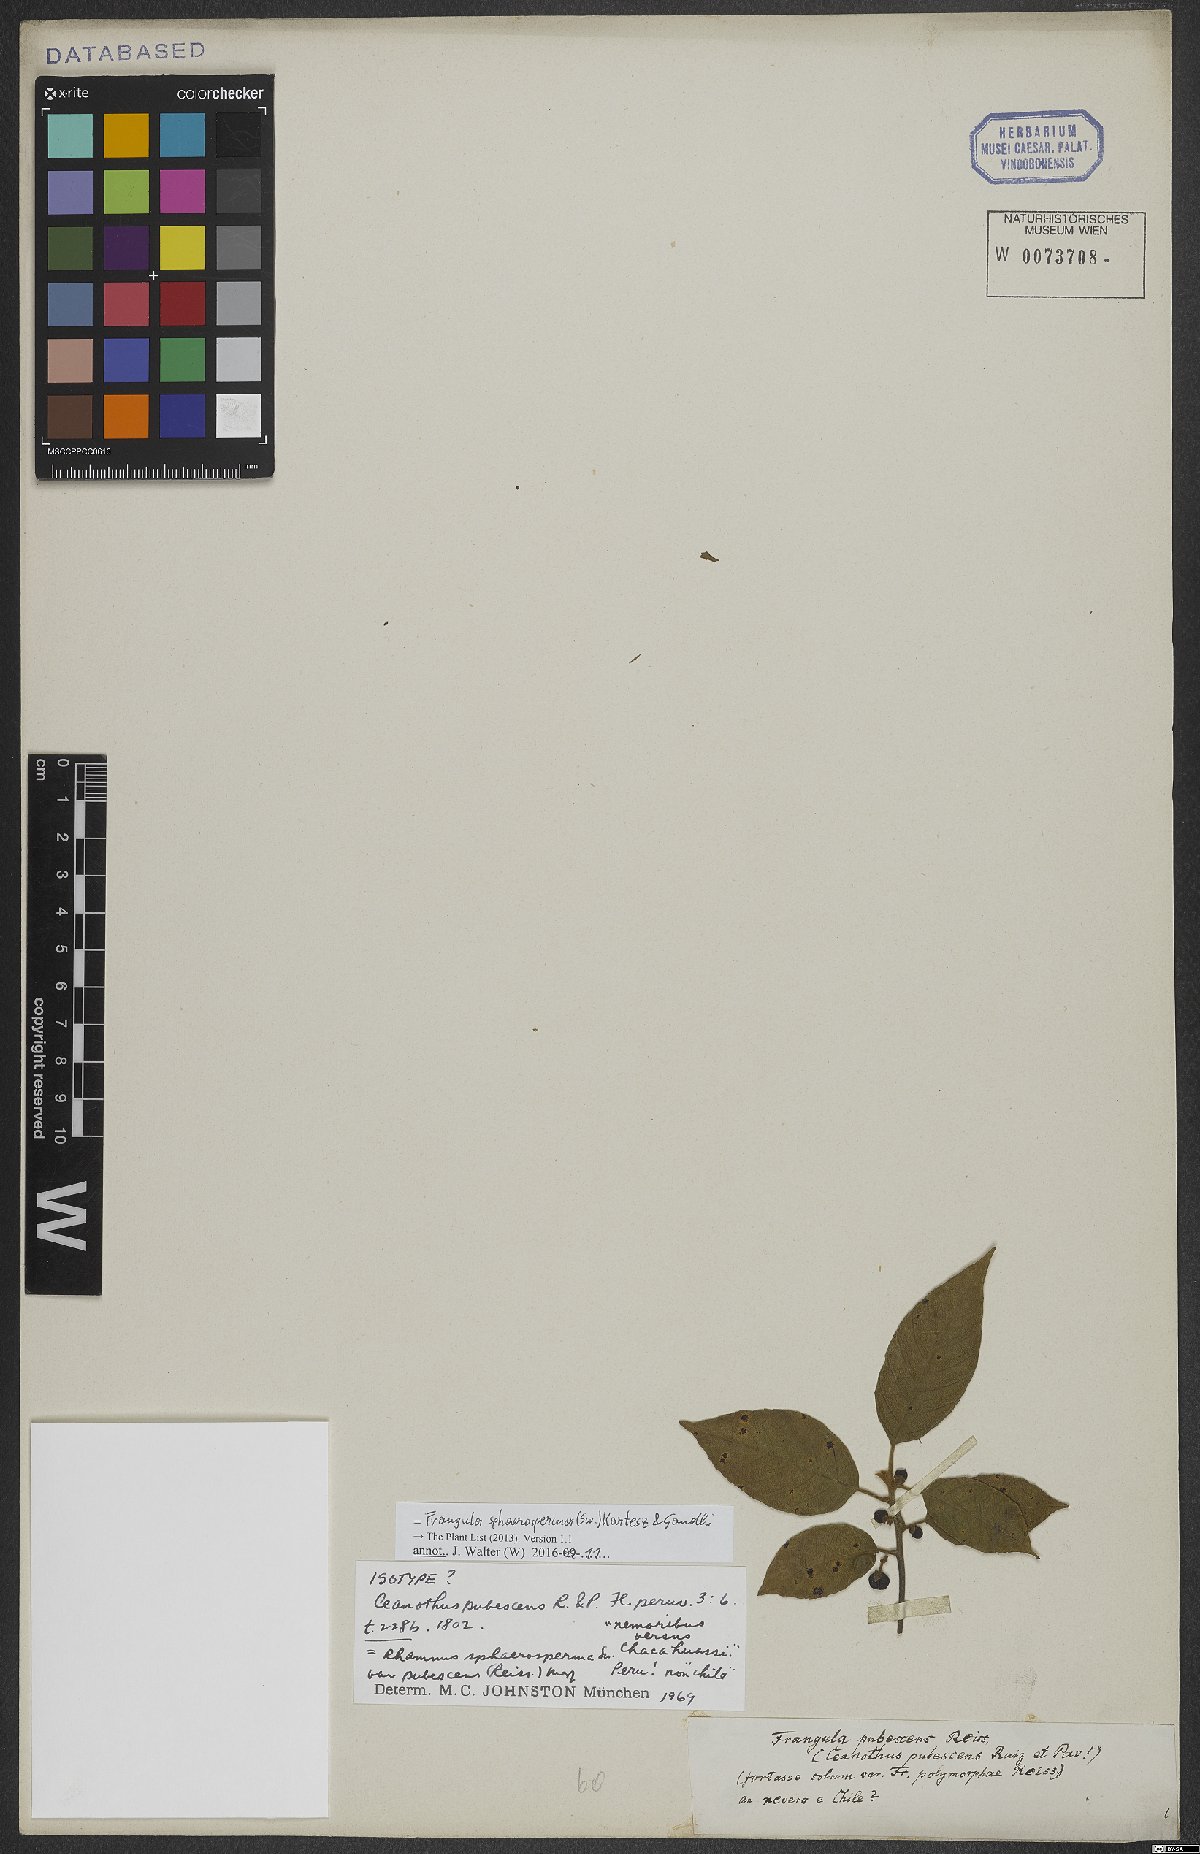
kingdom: Plantae
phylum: Tracheophyta
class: Magnoliopsida
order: Rosales
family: Rhamnaceae
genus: Frangula
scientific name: Frangula sphaerosperma
